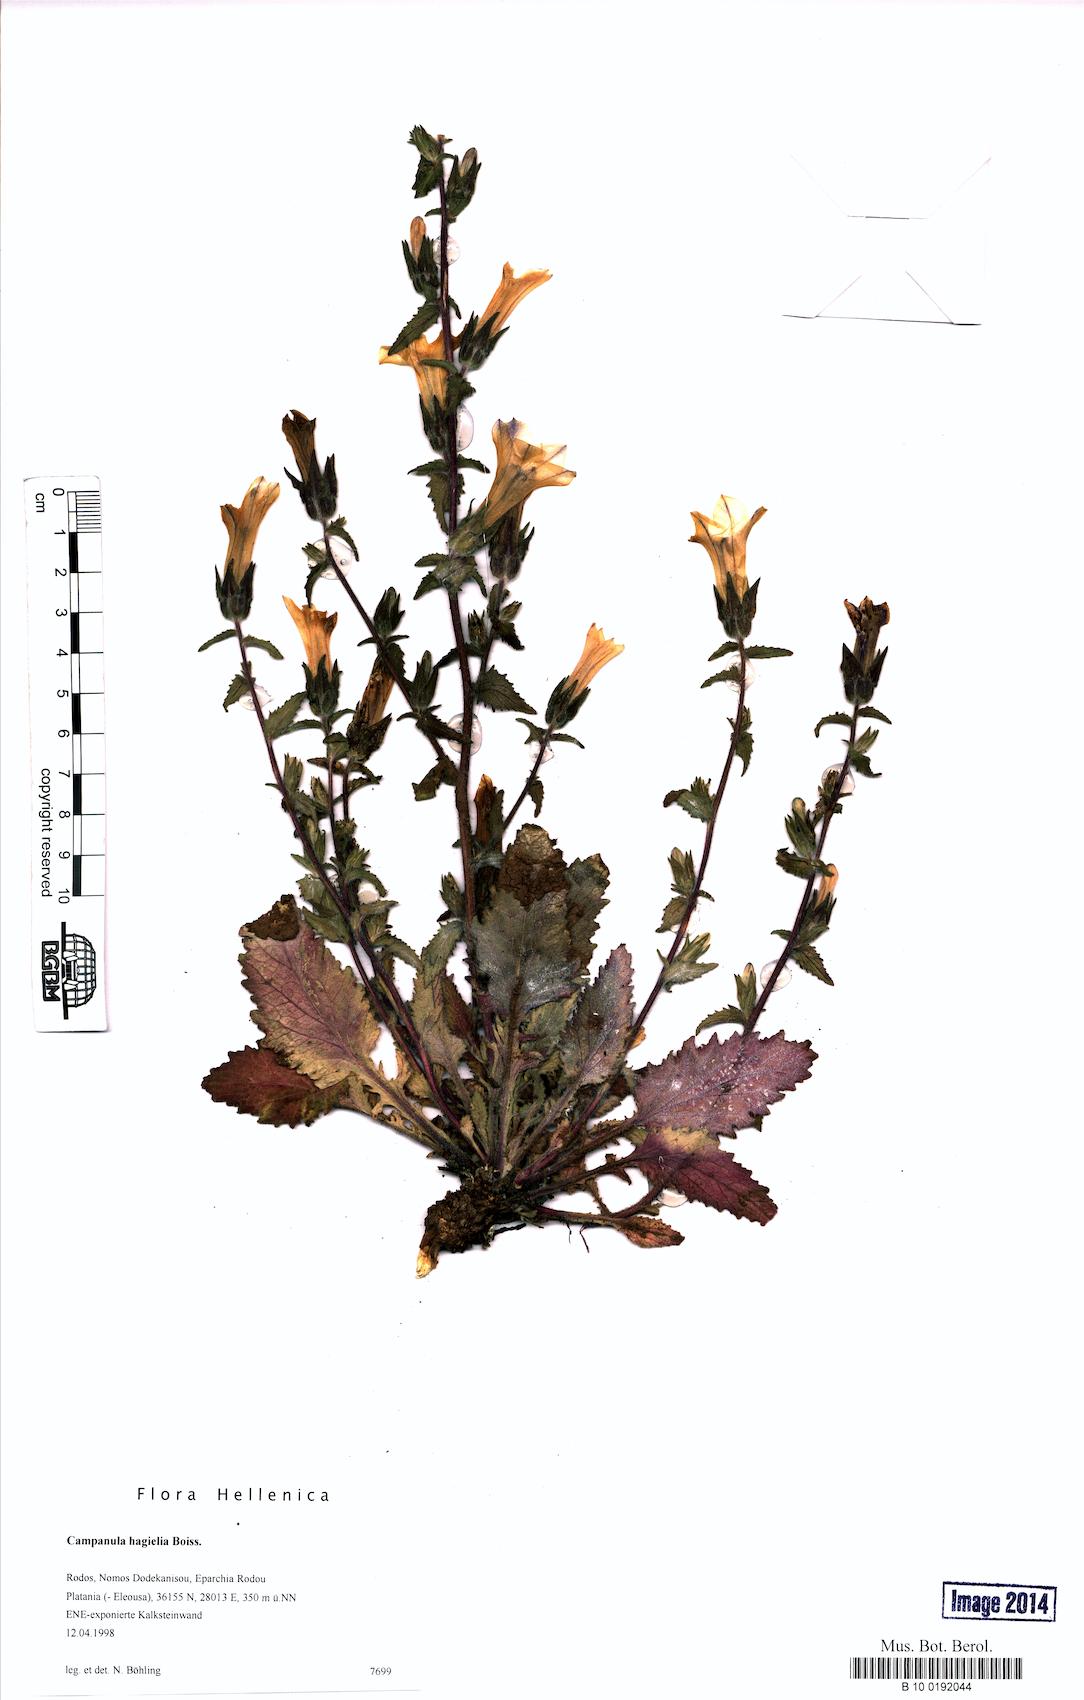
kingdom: Plantae
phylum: Tracheophyta
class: Magnoliopsida
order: Asterales
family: Campanulaceae
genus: Campanula
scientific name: Campanula hagielia
